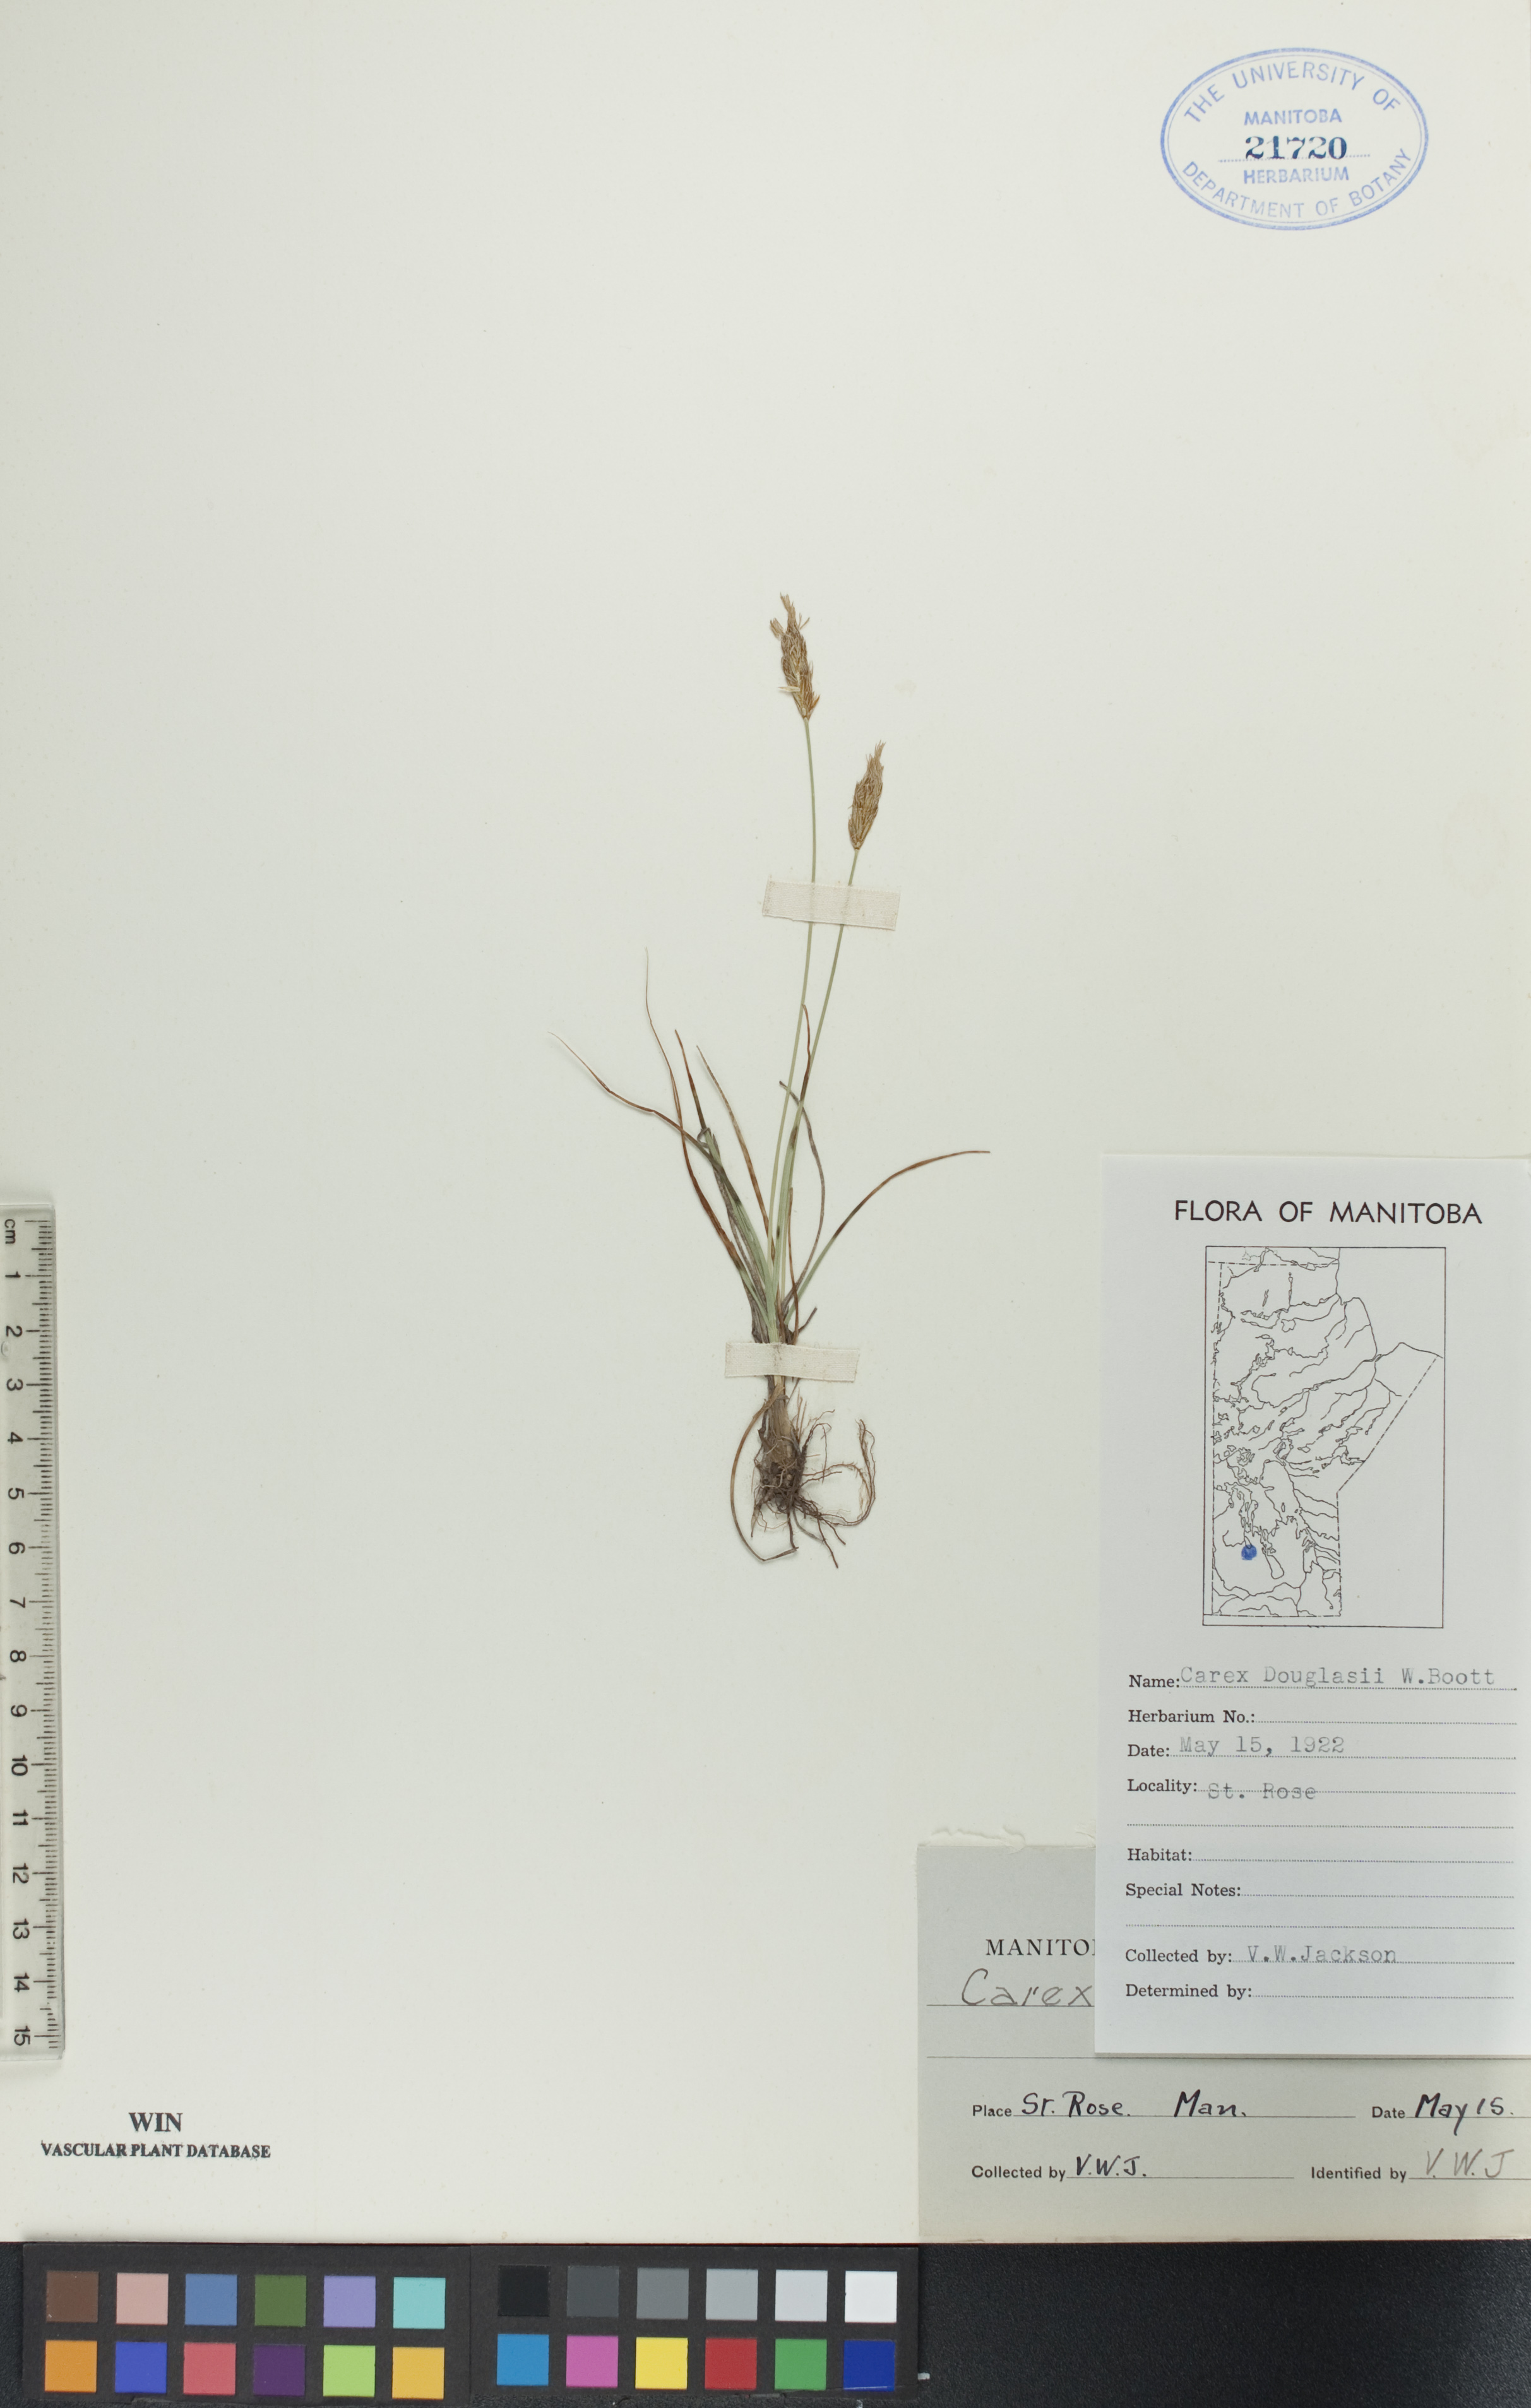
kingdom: Plantae
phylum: Tracheophyta
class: Liliopsida
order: Poales
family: Cyperaceae
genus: Carex
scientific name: Carex douglasii
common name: Douglas' sedge
